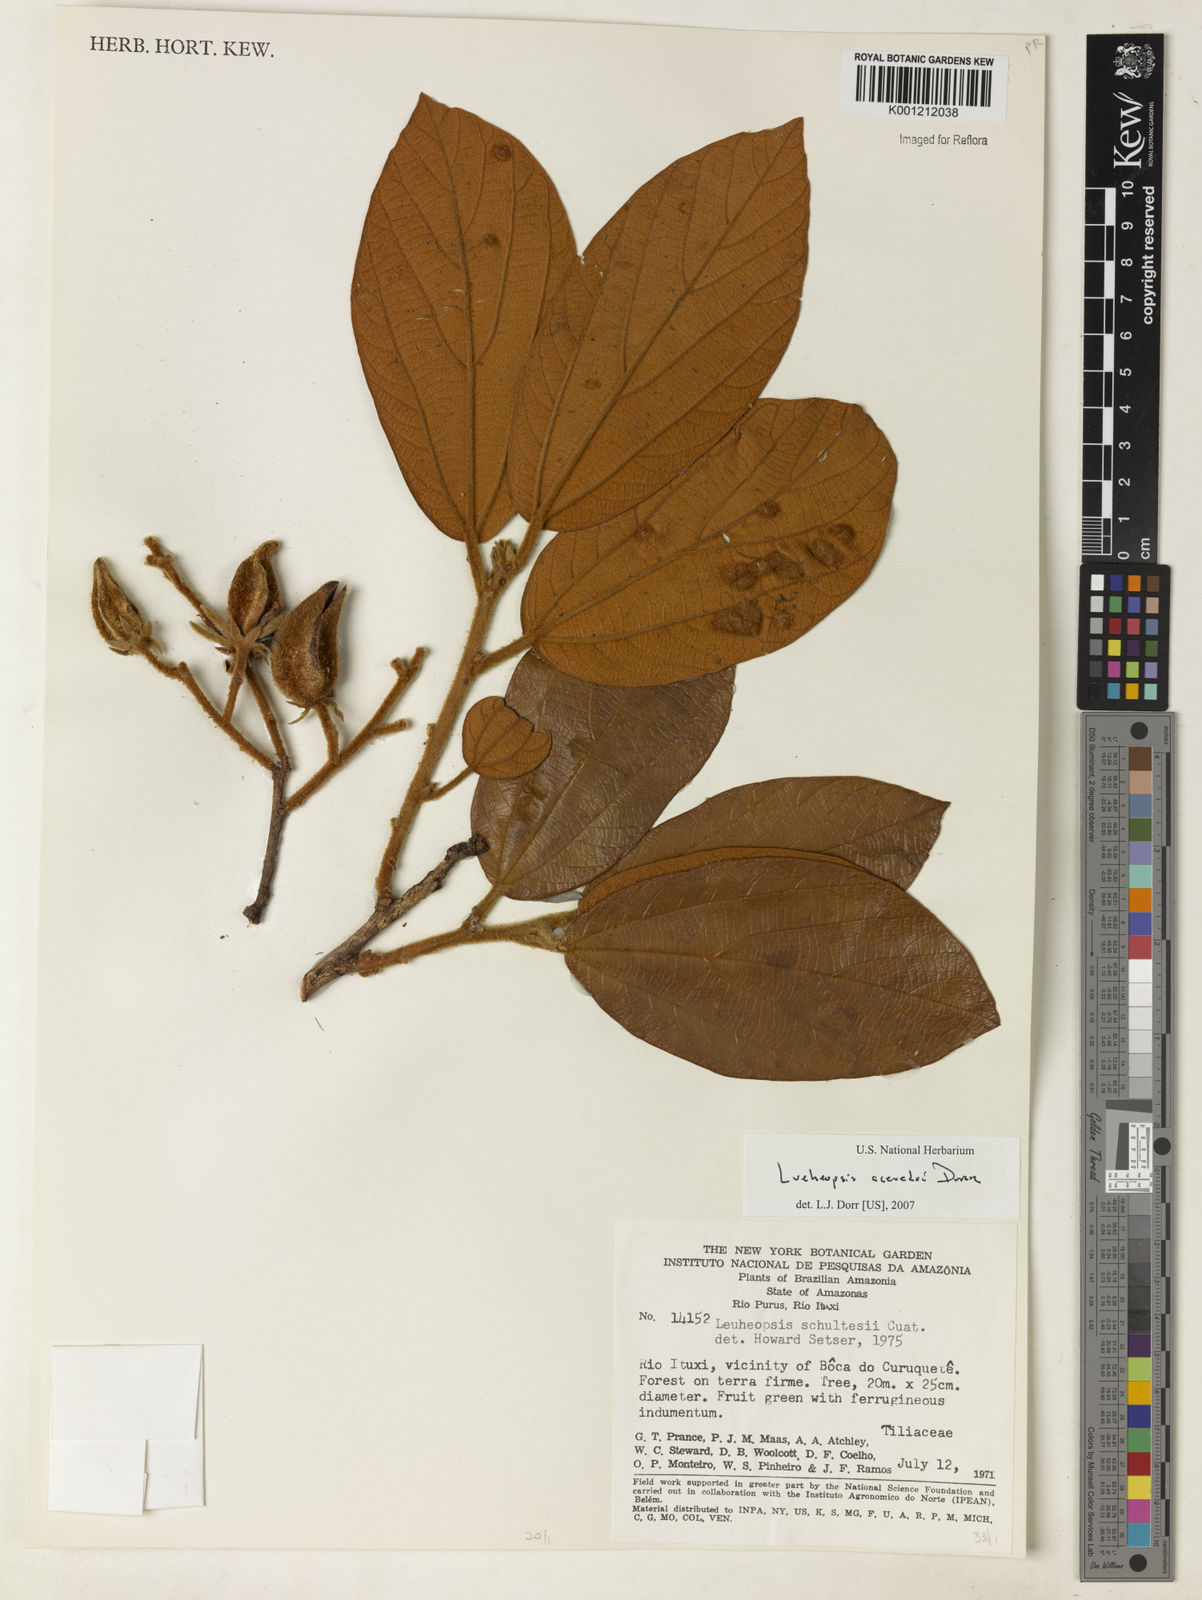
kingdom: Plantae
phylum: Tracheophyta
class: Magnoliopsida
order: Malvales
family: Malvaceae
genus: Lueheopsis
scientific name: Lueheopsis
